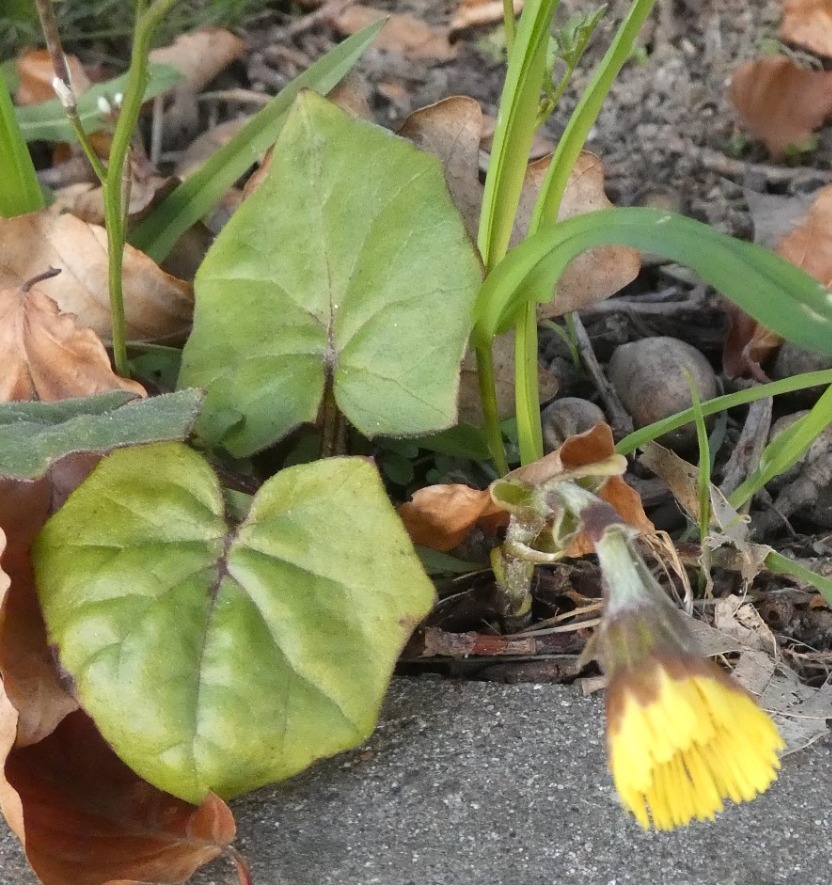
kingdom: Plantae
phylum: Tracheophyta
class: Magnoliopsida
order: Asterales
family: Asteraceae
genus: Tussilago
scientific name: Tussilago farfara
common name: Følfod
